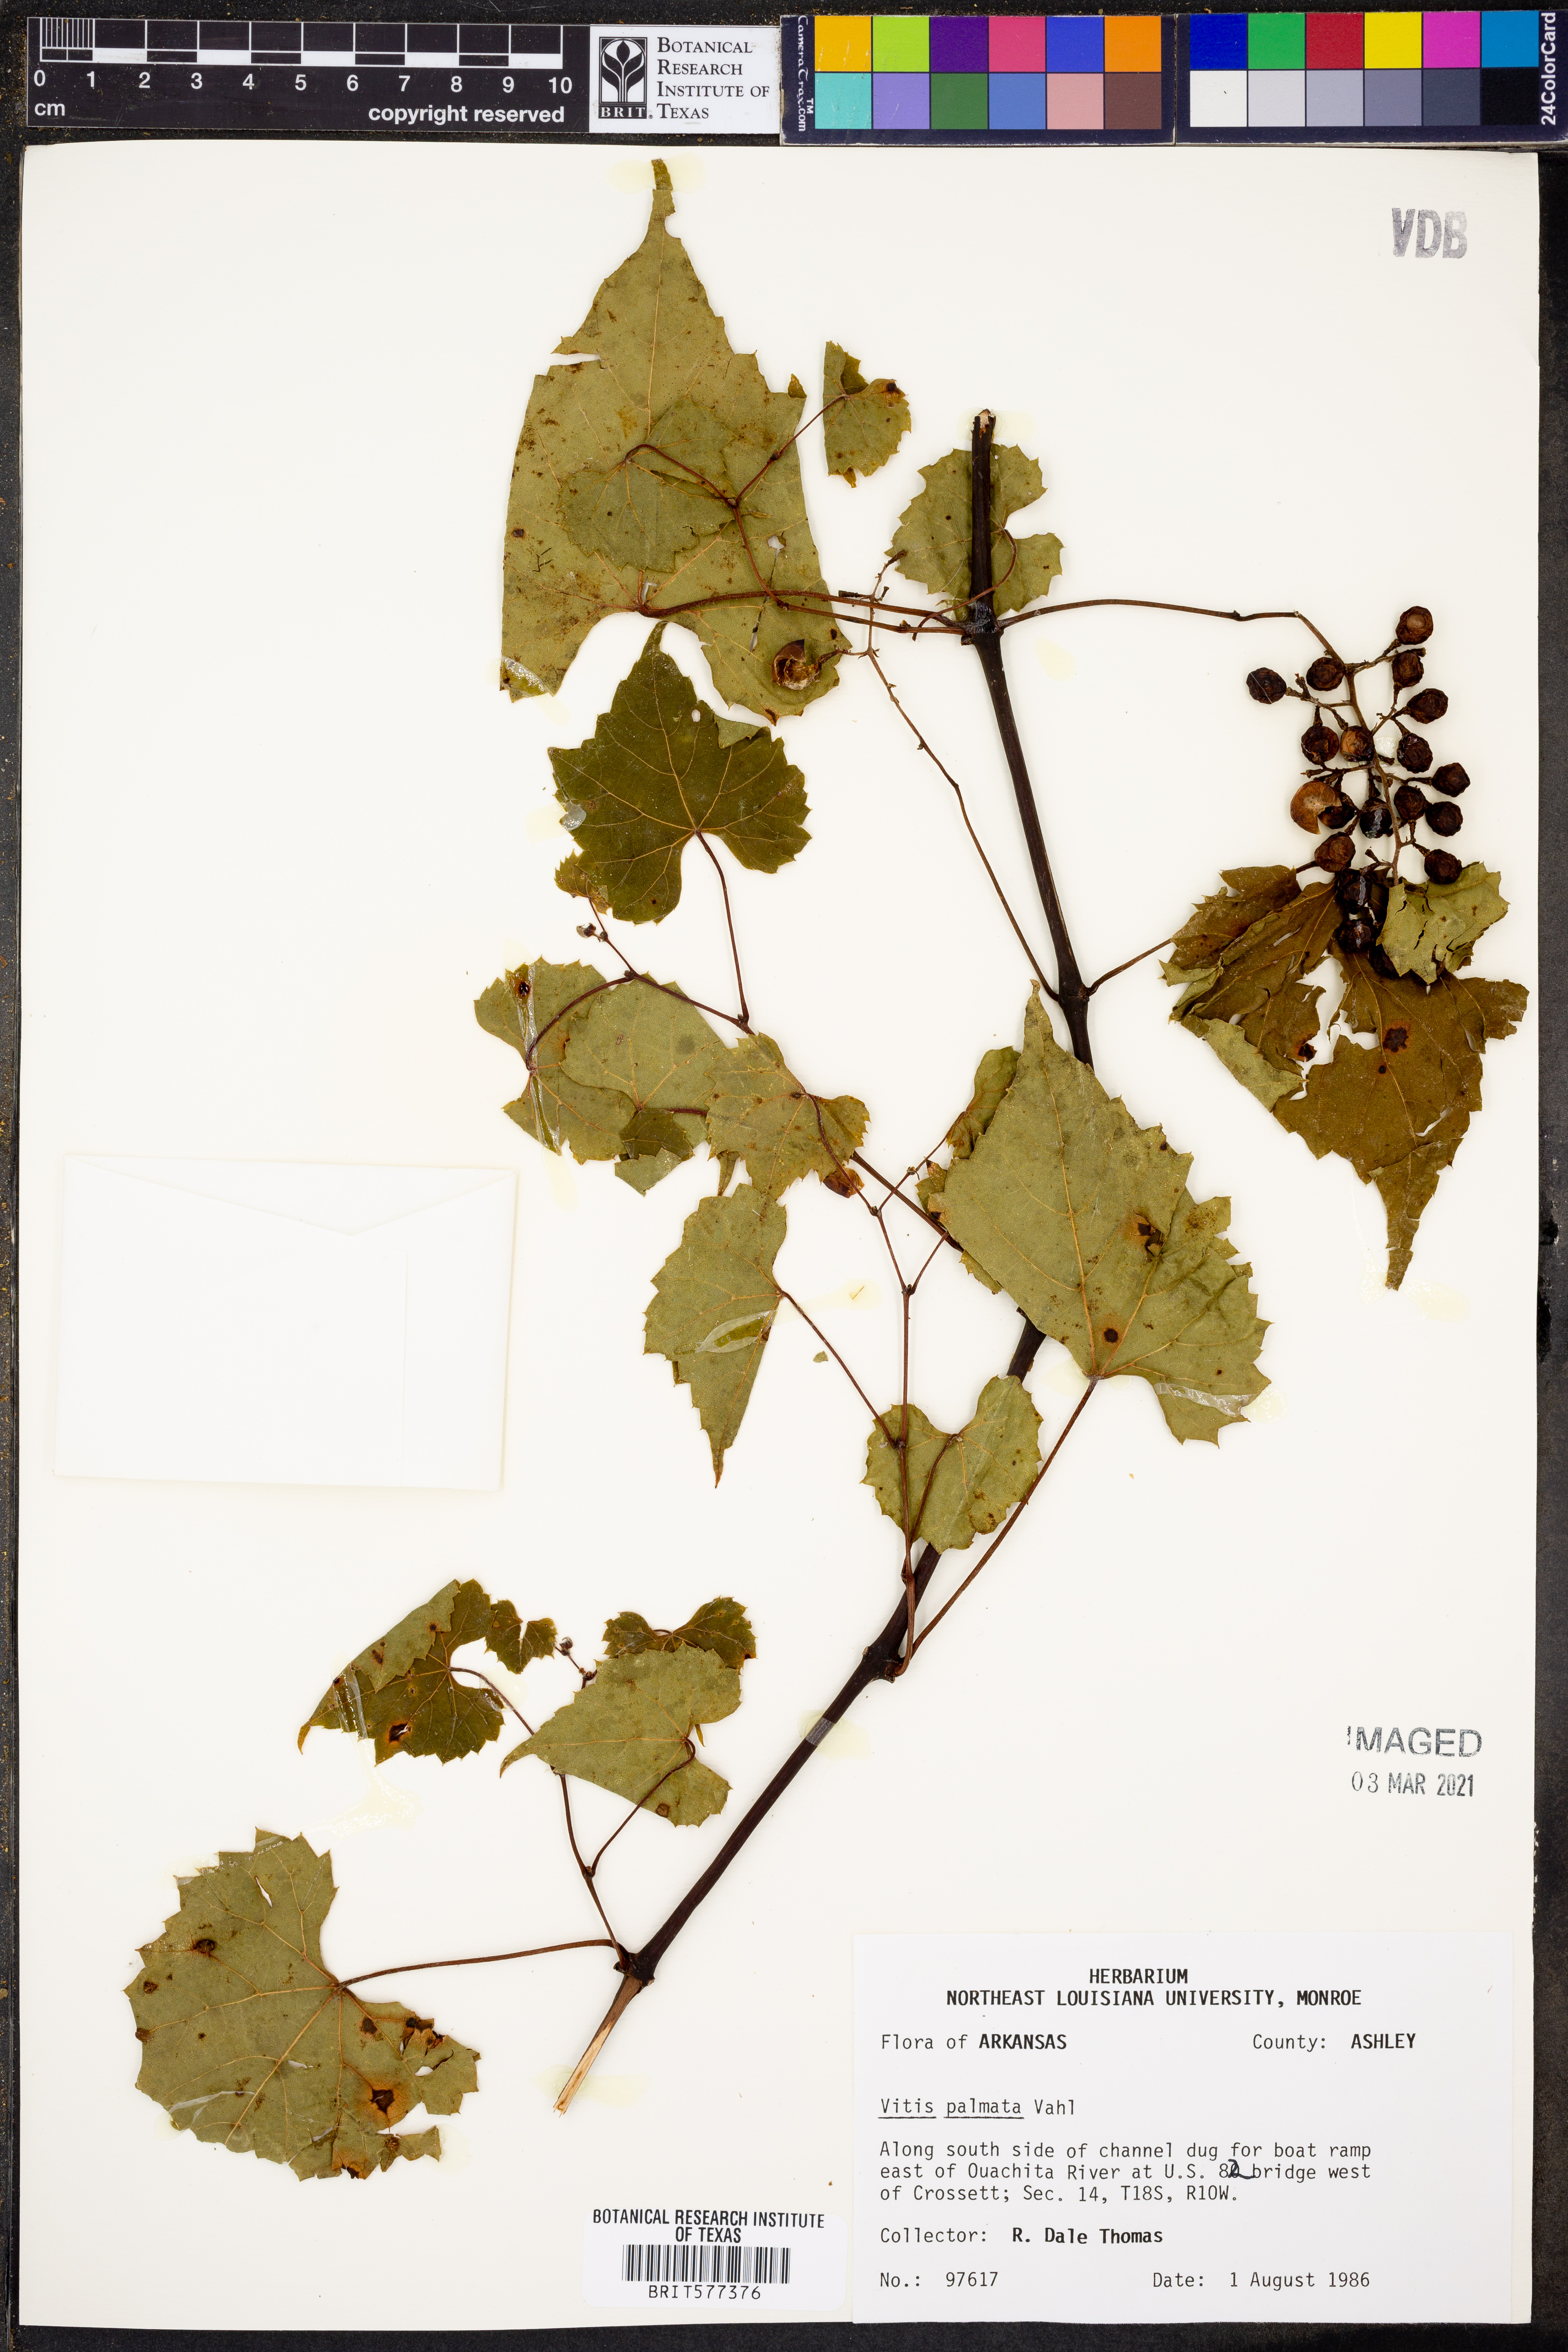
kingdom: Plantae
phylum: Tracheophyta
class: Magnoliopsida
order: Vitales
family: Vitaceae
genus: Vitis
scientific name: Vitis palmata
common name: Catbird grape
